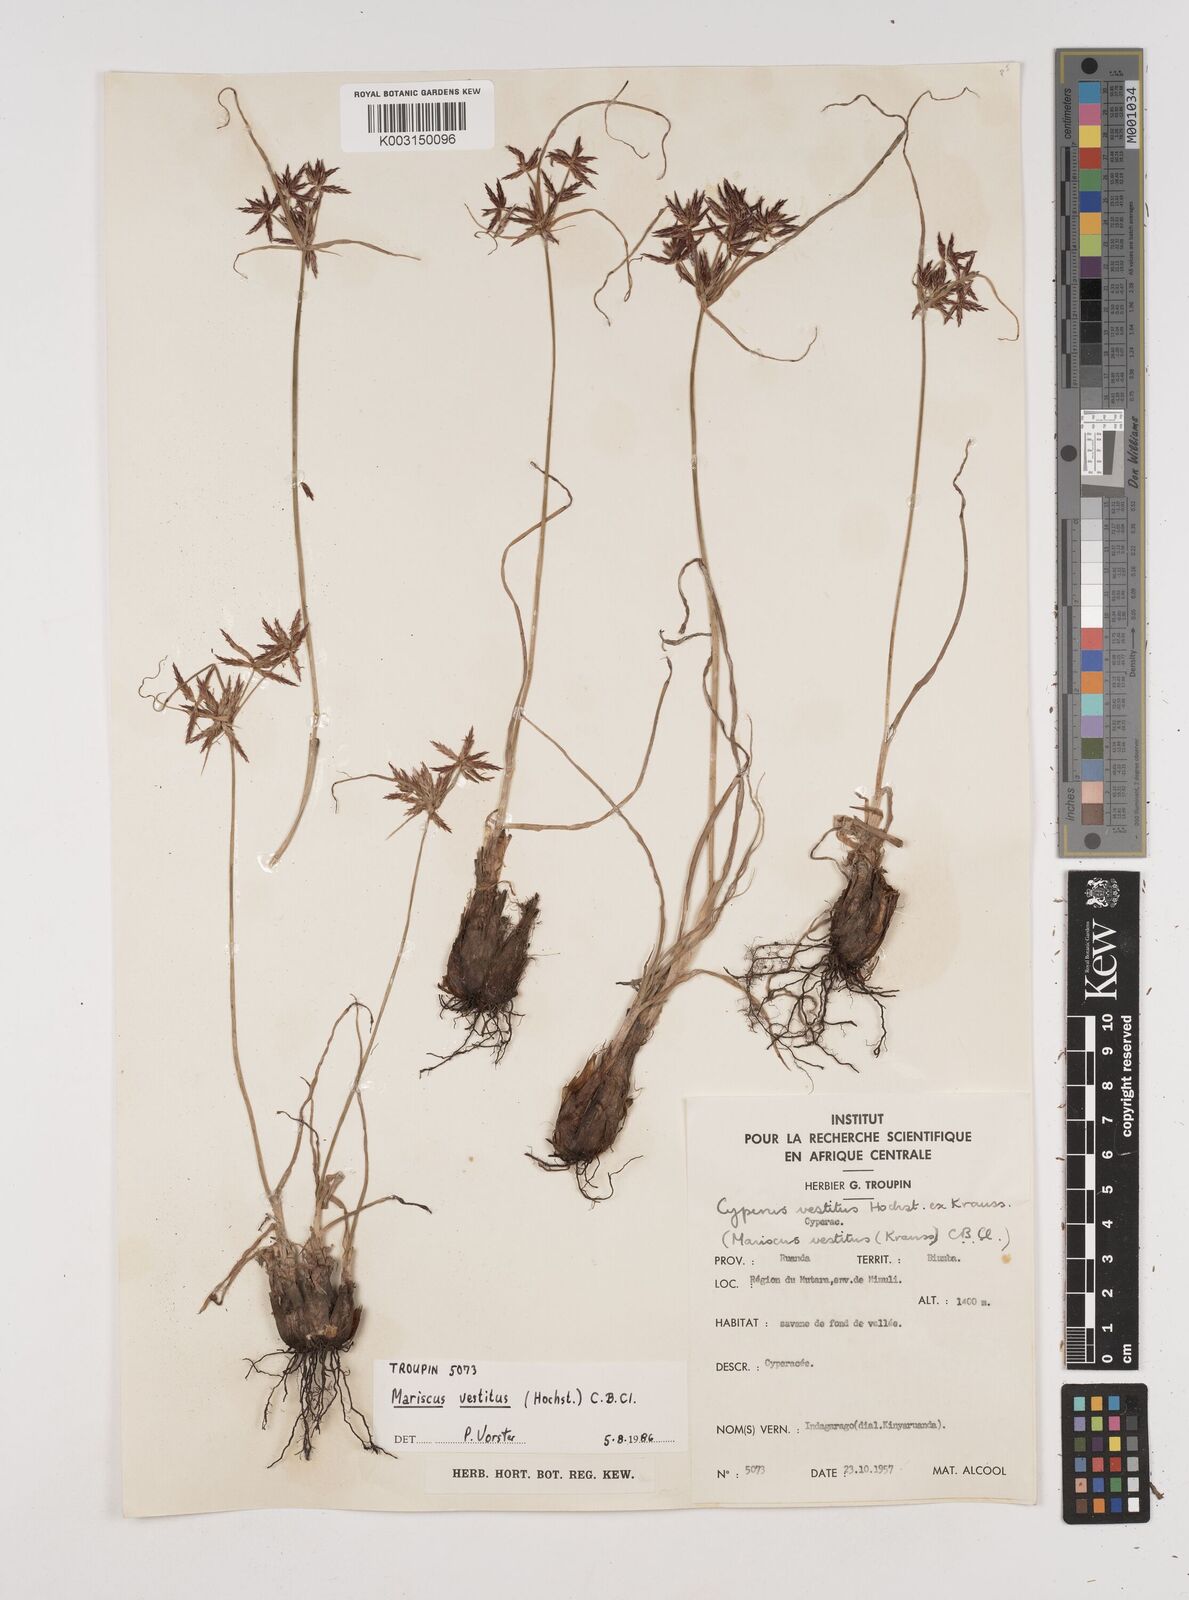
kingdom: Plantae
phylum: Tracheophyta
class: Liliopsida
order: Poales
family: Cyperaceae
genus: Cyperus
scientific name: Cyperus vestitus
